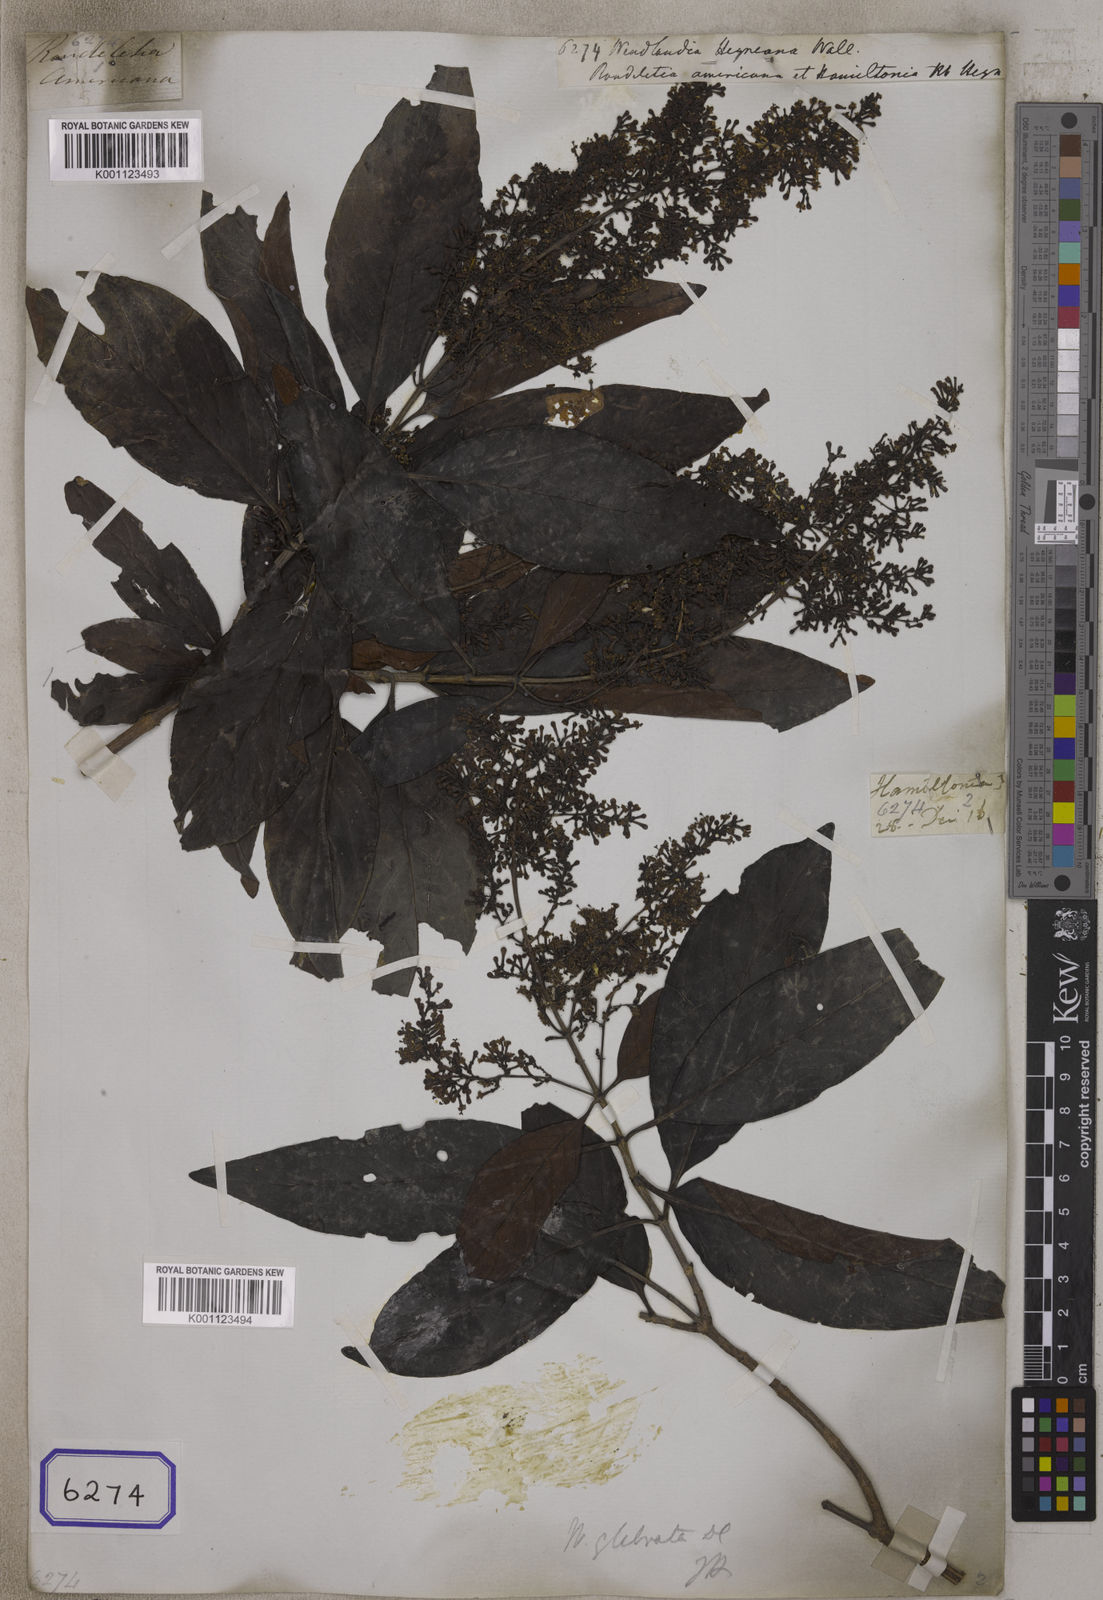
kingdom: Plantae
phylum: Tracheophyta
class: Magnoliopsida
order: Gentianales
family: Rubiaceae
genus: Wendlandia
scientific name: Wendlandia
